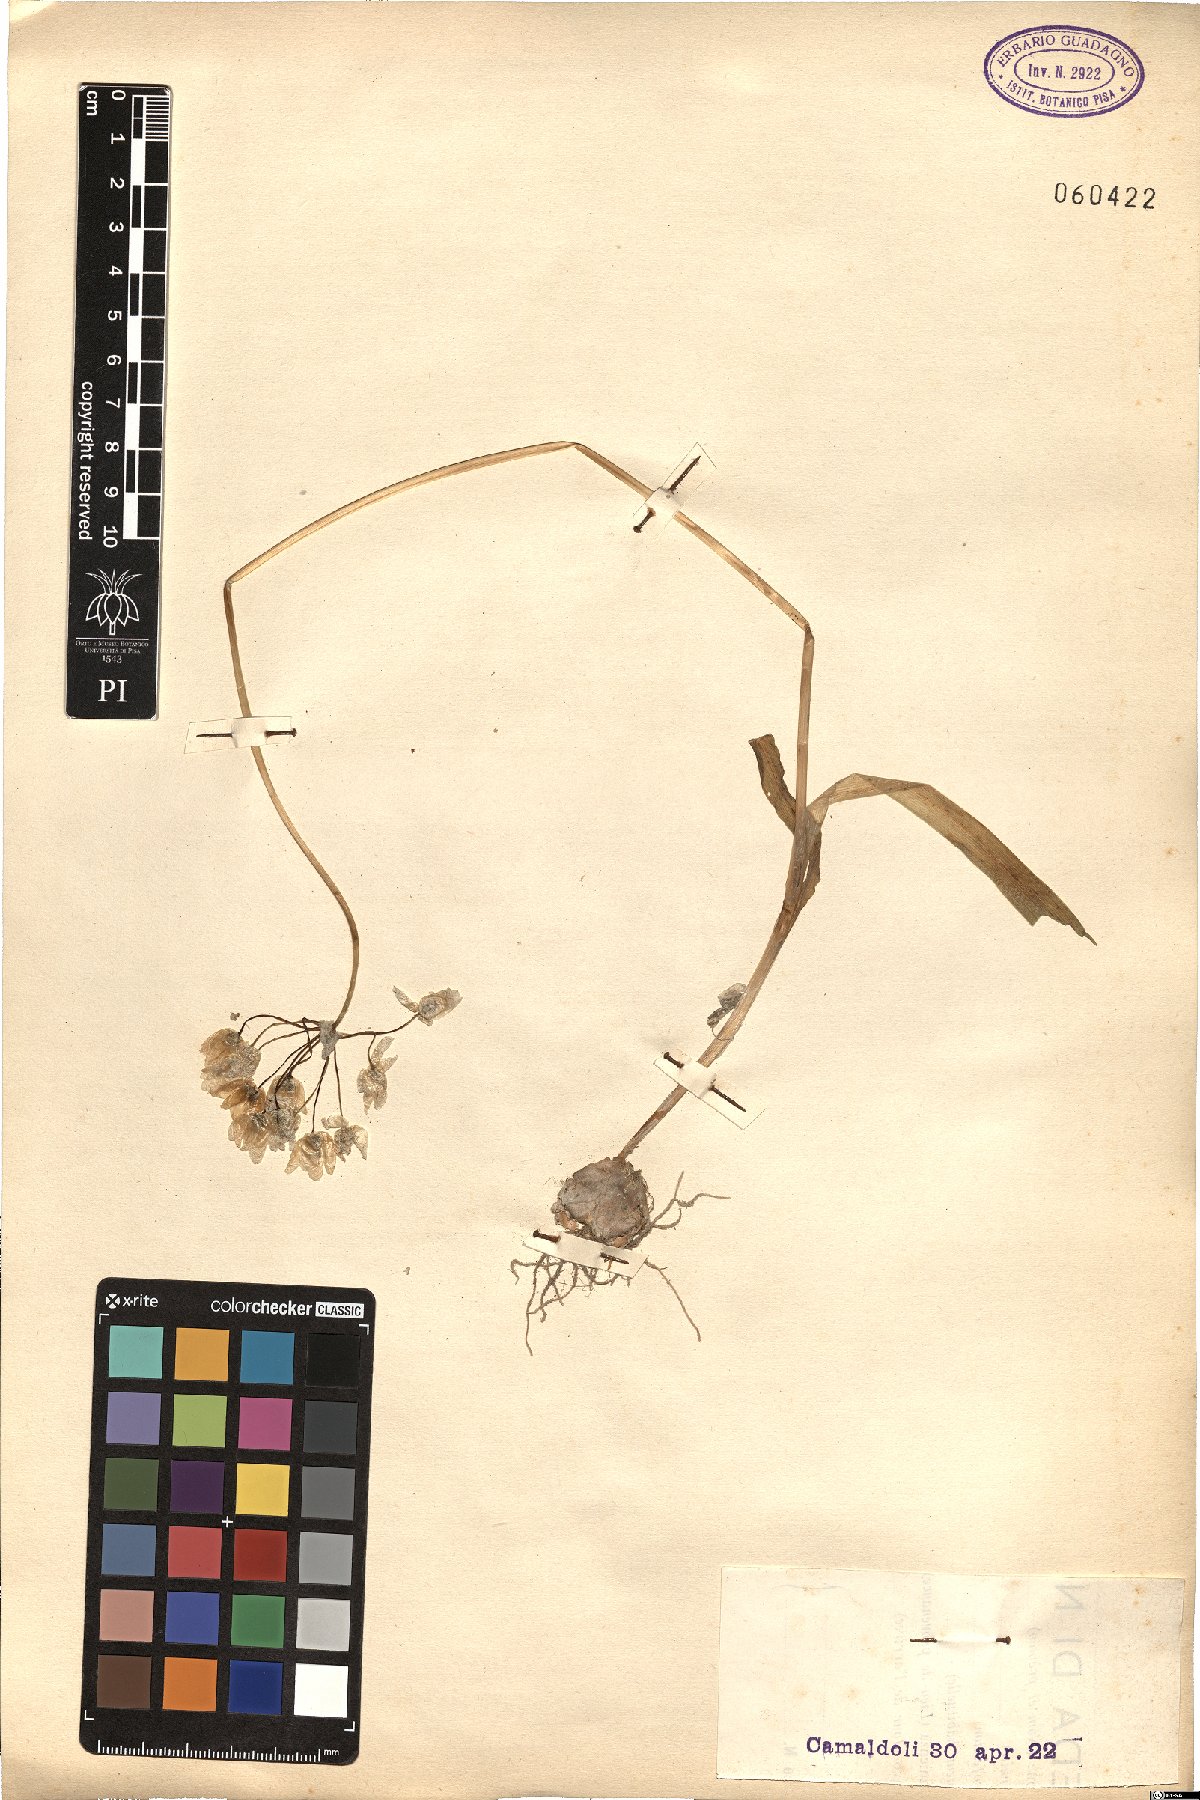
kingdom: Plantae
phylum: Tracheophyta
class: Liliopsida
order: Asparagales
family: Amaryllidaceae
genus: Allium
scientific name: Allium
